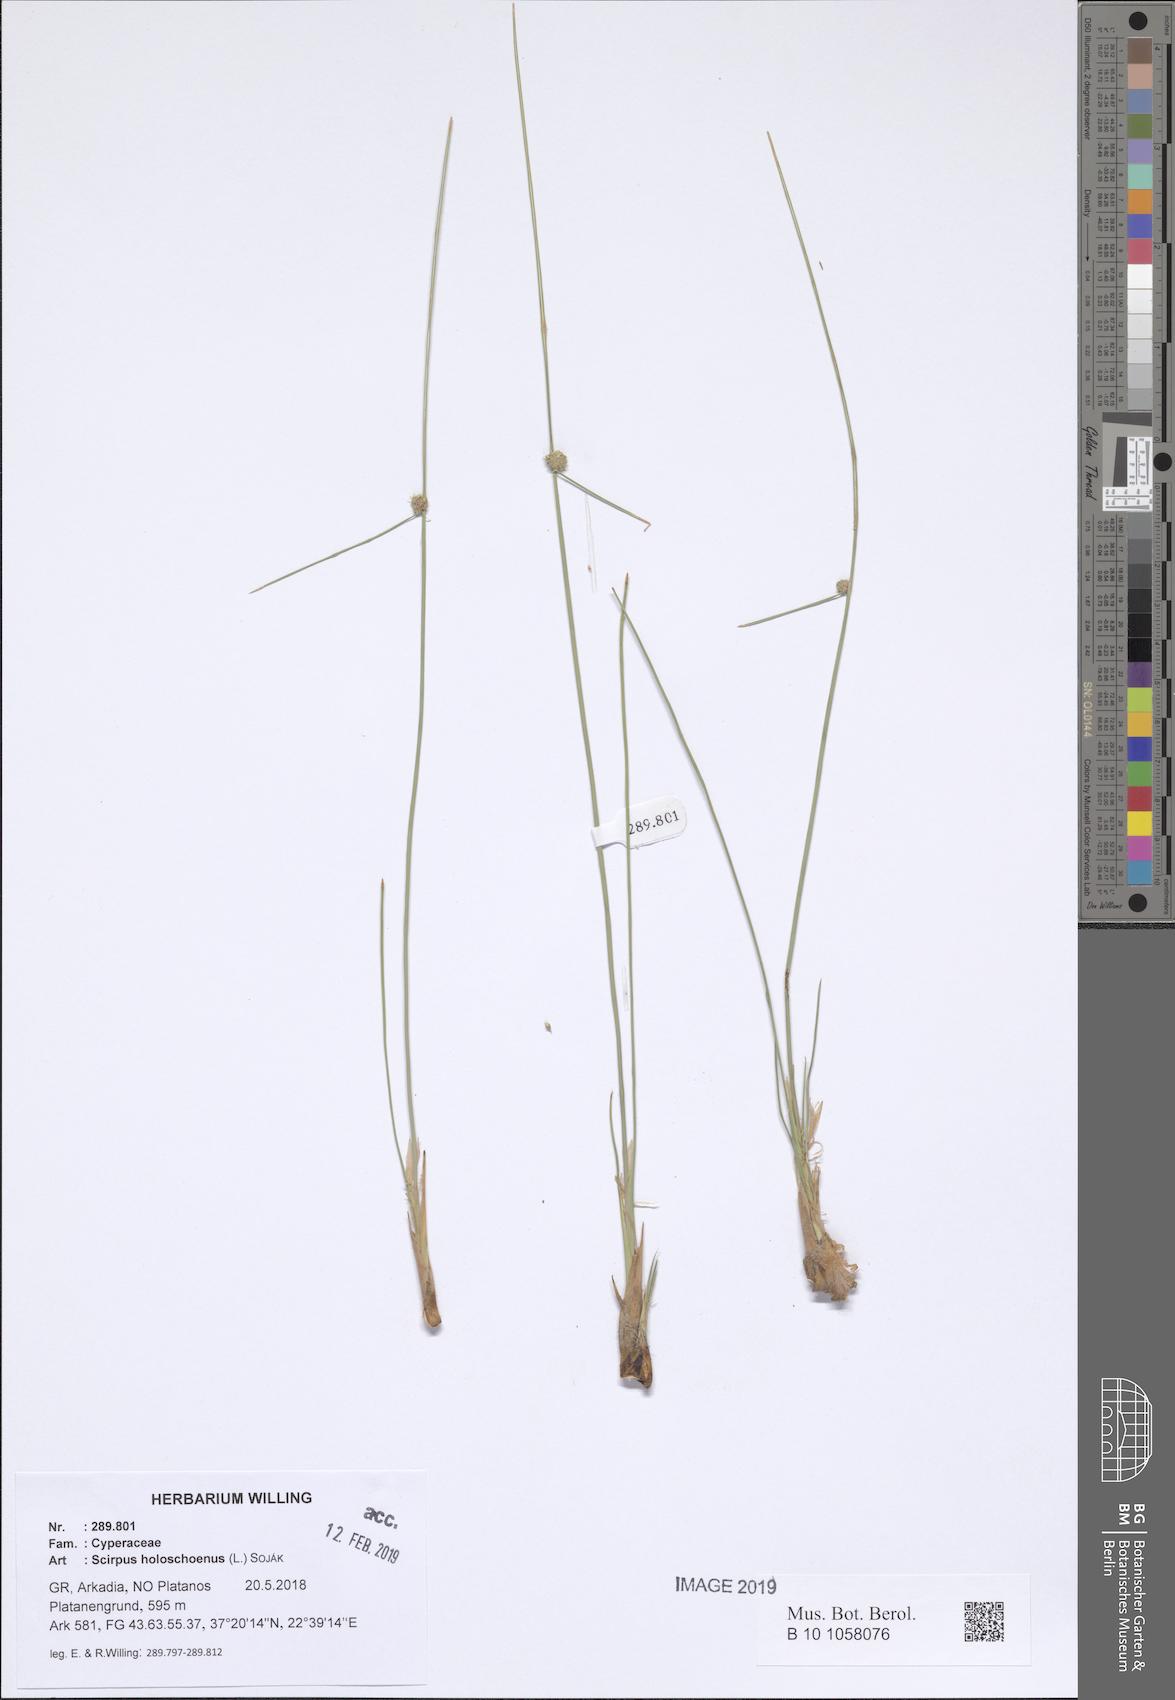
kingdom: Plantae
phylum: Tracheophyta
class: Liliopsida
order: Poales
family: Cyperaceae
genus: Scirpoides
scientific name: Scirpoides holoschoenus
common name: Round-headed club-rush
